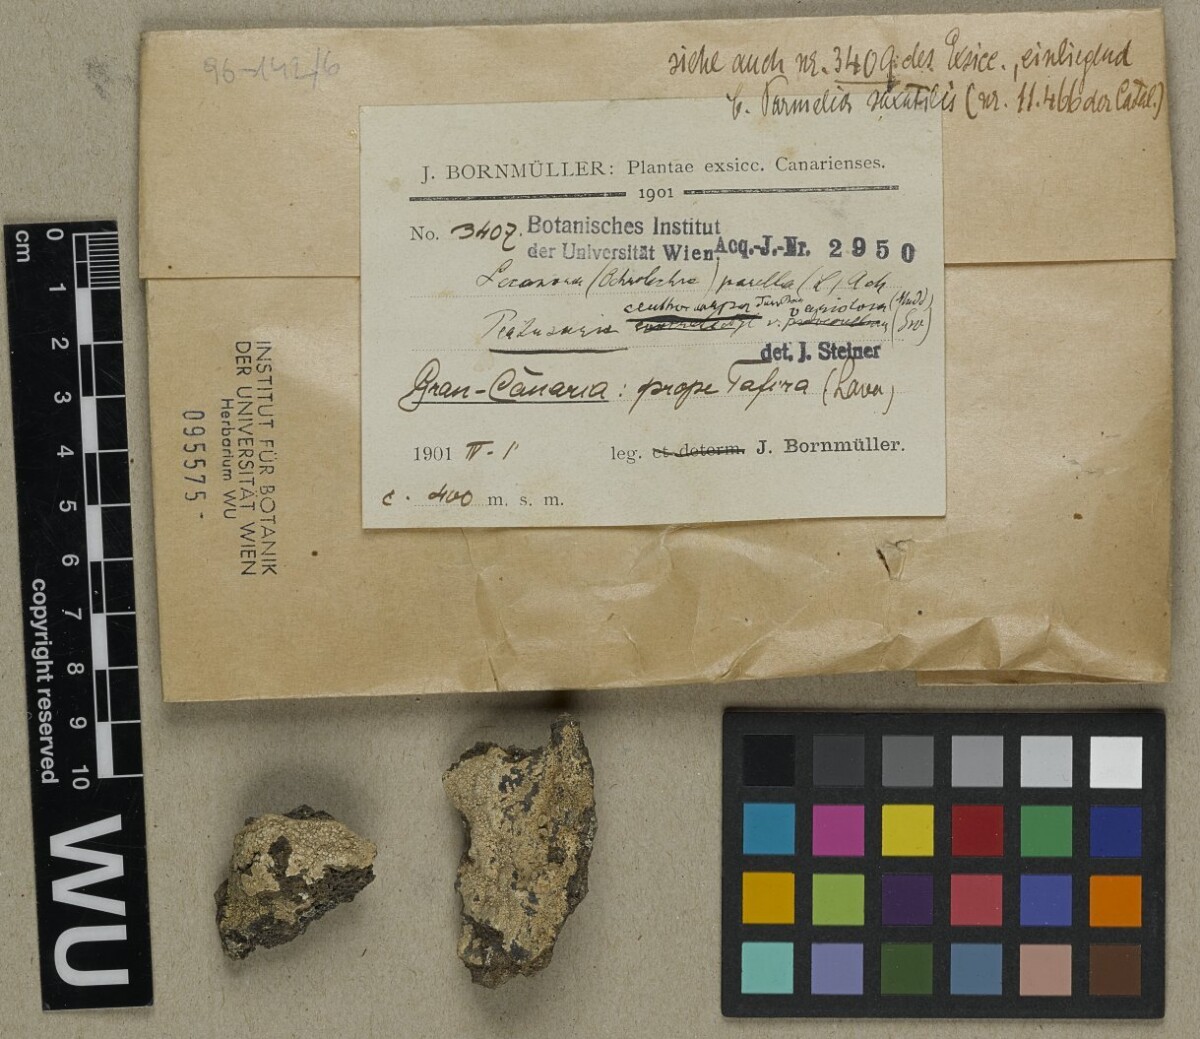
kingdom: Fungi
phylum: Ascomycota
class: Lecanoromycetes
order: Pertusariales
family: Ochrolechiaceae
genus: Ochrolechia
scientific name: Ochrolechia parella
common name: Crab's eye lichen
